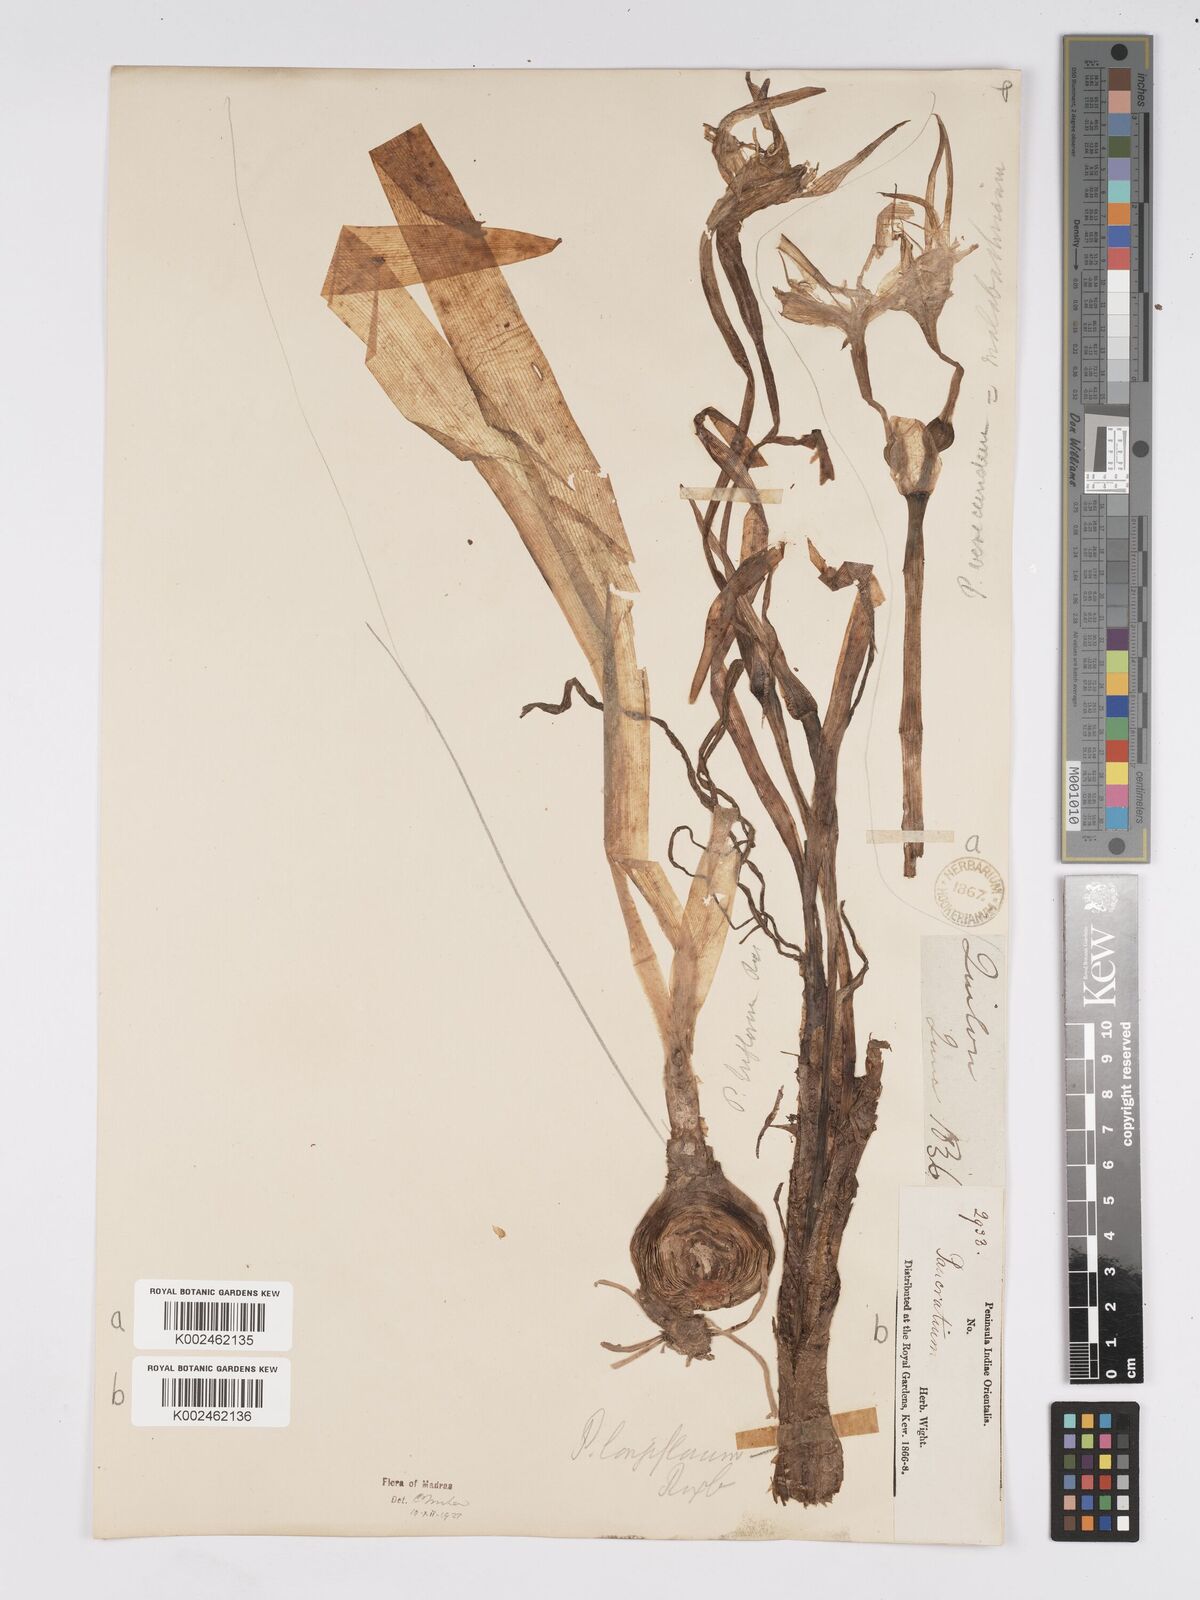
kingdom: Plantae
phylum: Tracheophyta
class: Liliopsida
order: Asparagales
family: Amaryllidaceae
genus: Pancratium
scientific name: Pancratium verecundum
